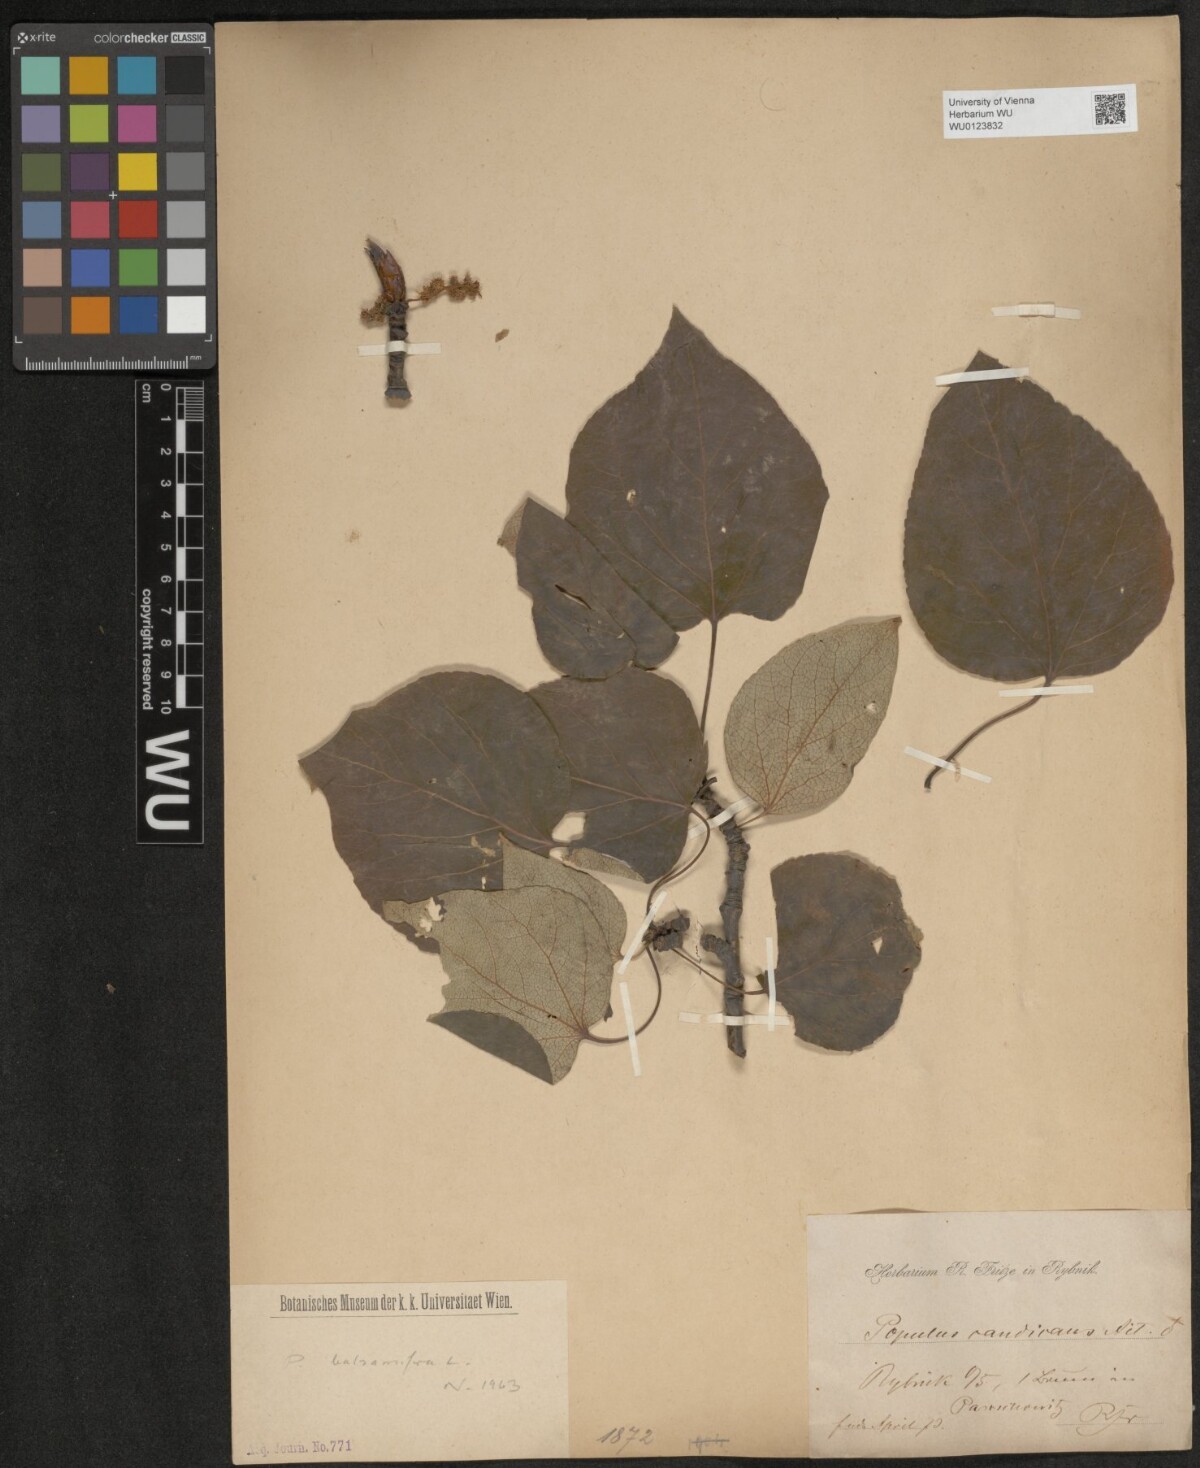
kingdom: Plantae
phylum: Tracheophyta
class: Magnoliopsida
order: Malpighiales
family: Salicaceae
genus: Populus
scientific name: Populus balsamifera
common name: Balsam poplar
